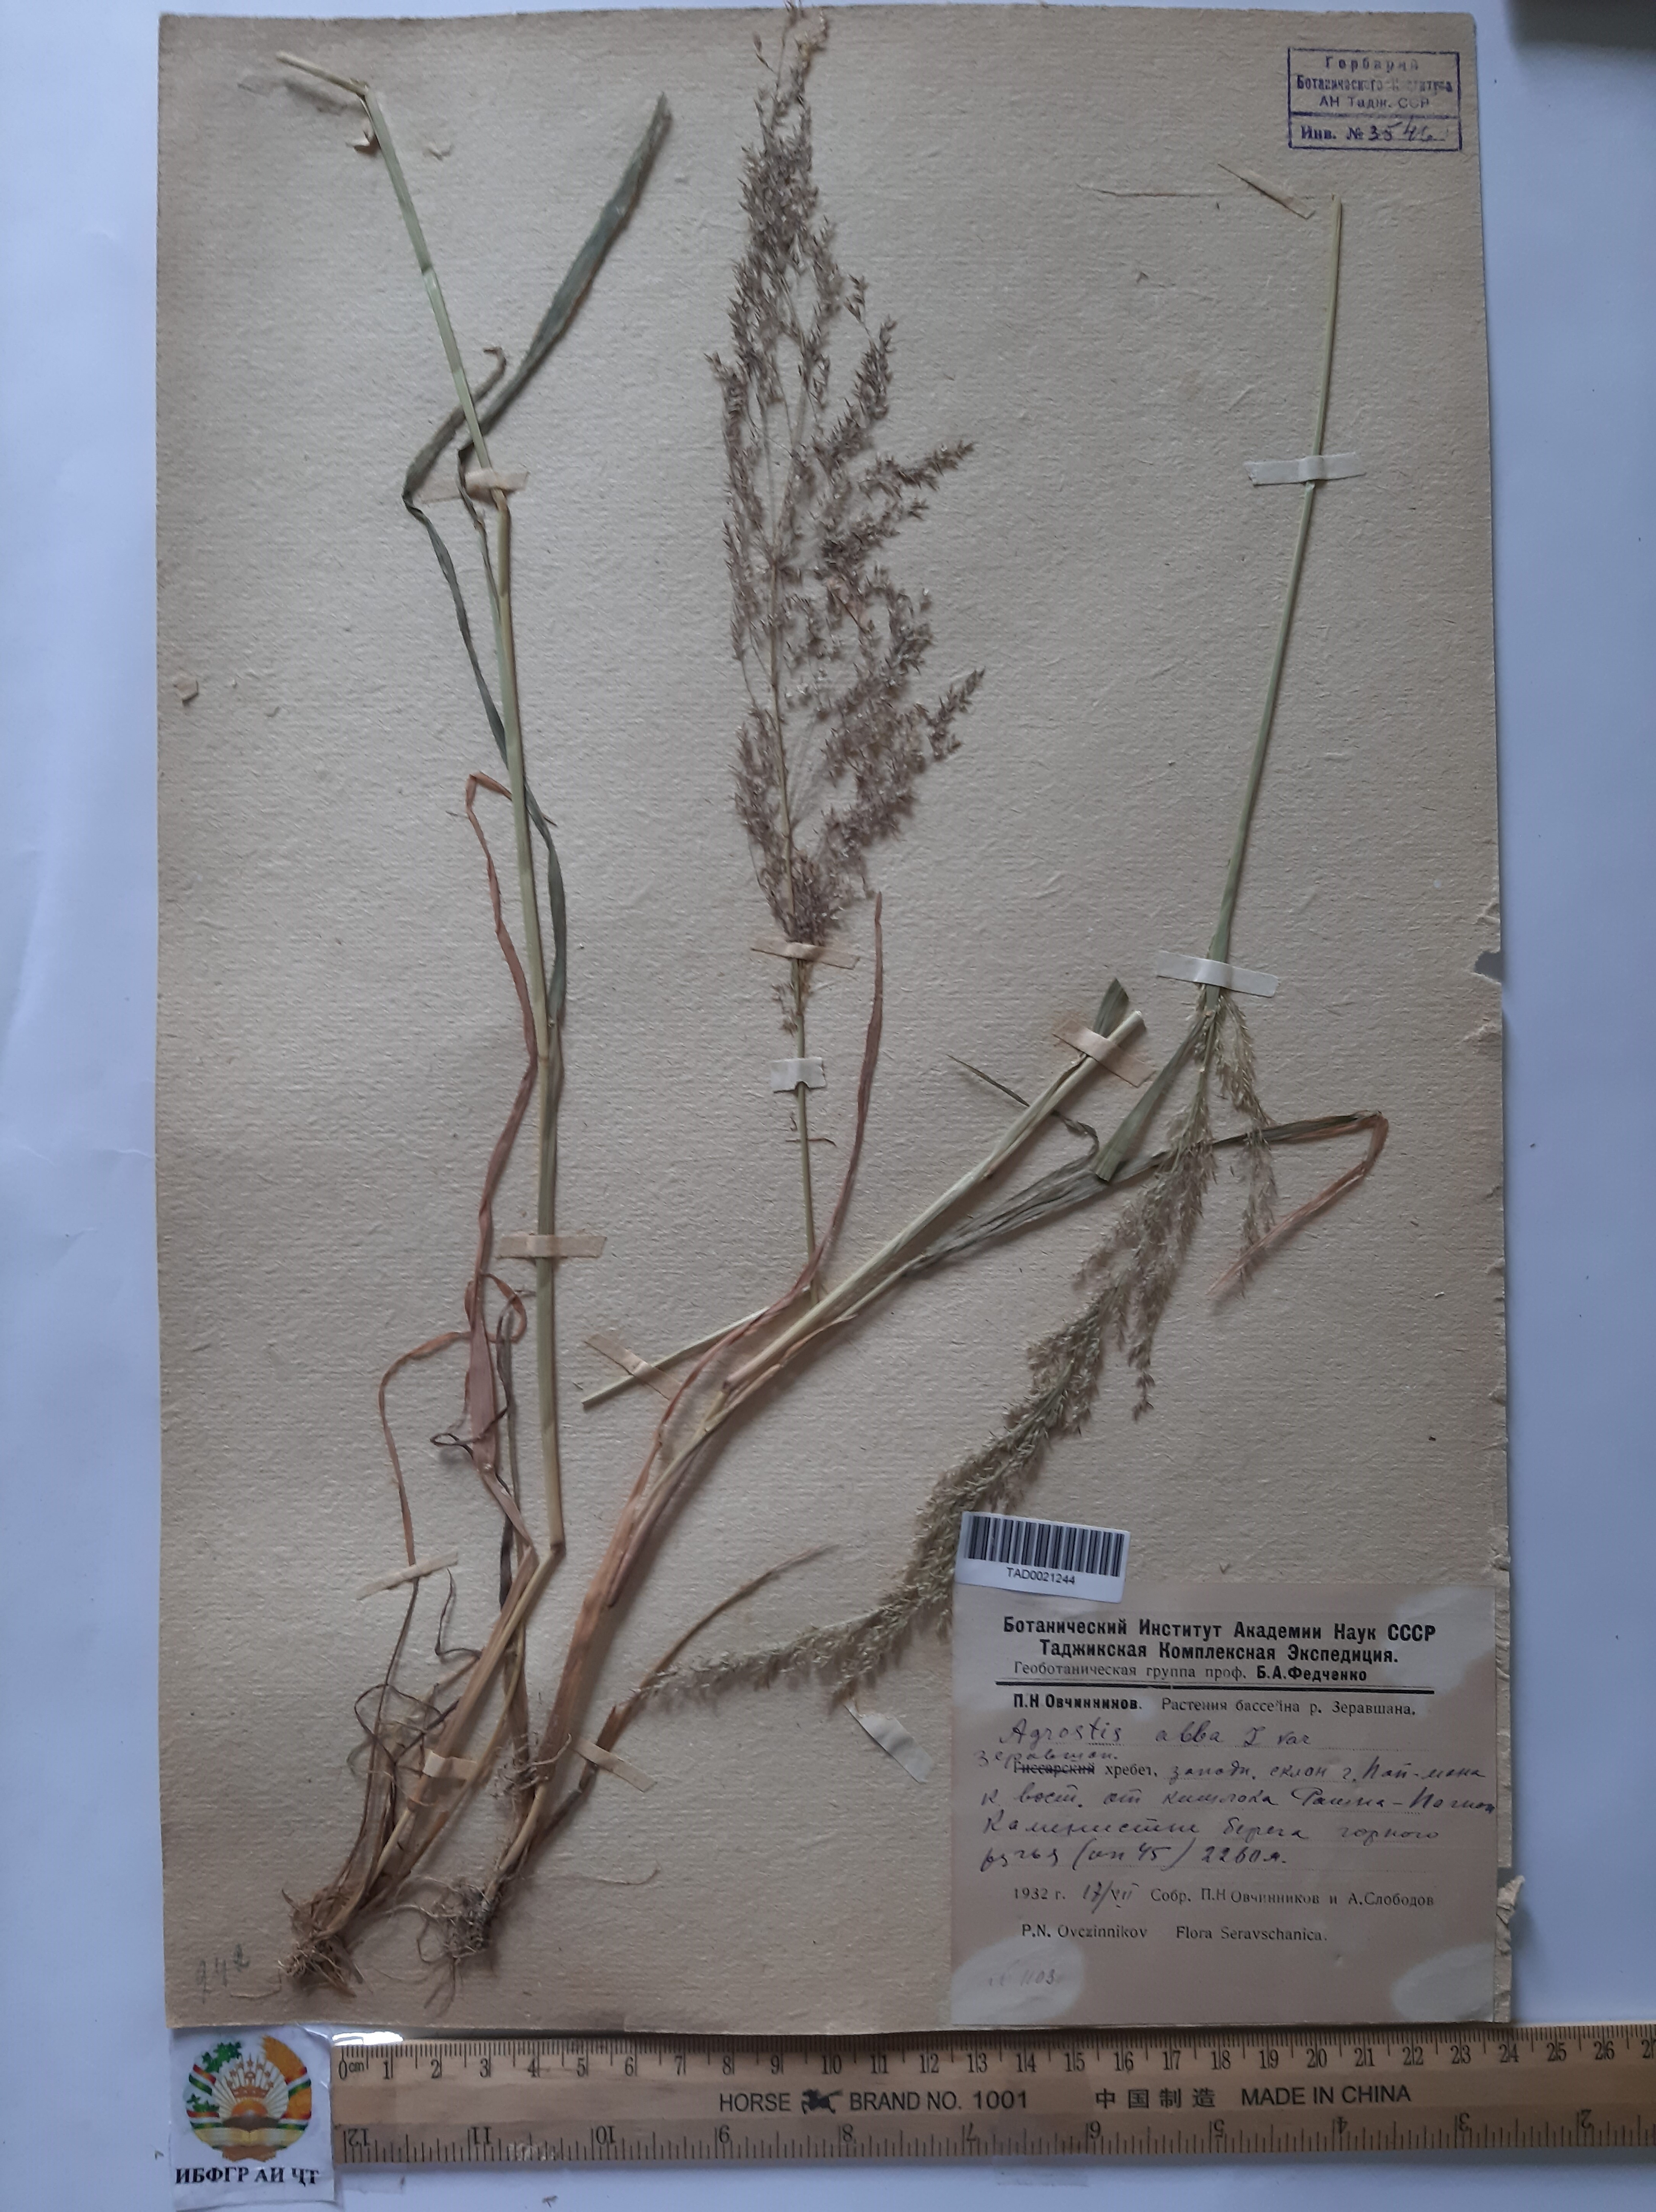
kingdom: Plantae
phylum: Tracheophyta
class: Liliopsida
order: Poales
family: Poaceae
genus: Poa
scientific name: Poa nemoralis
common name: Wood bluegrass
